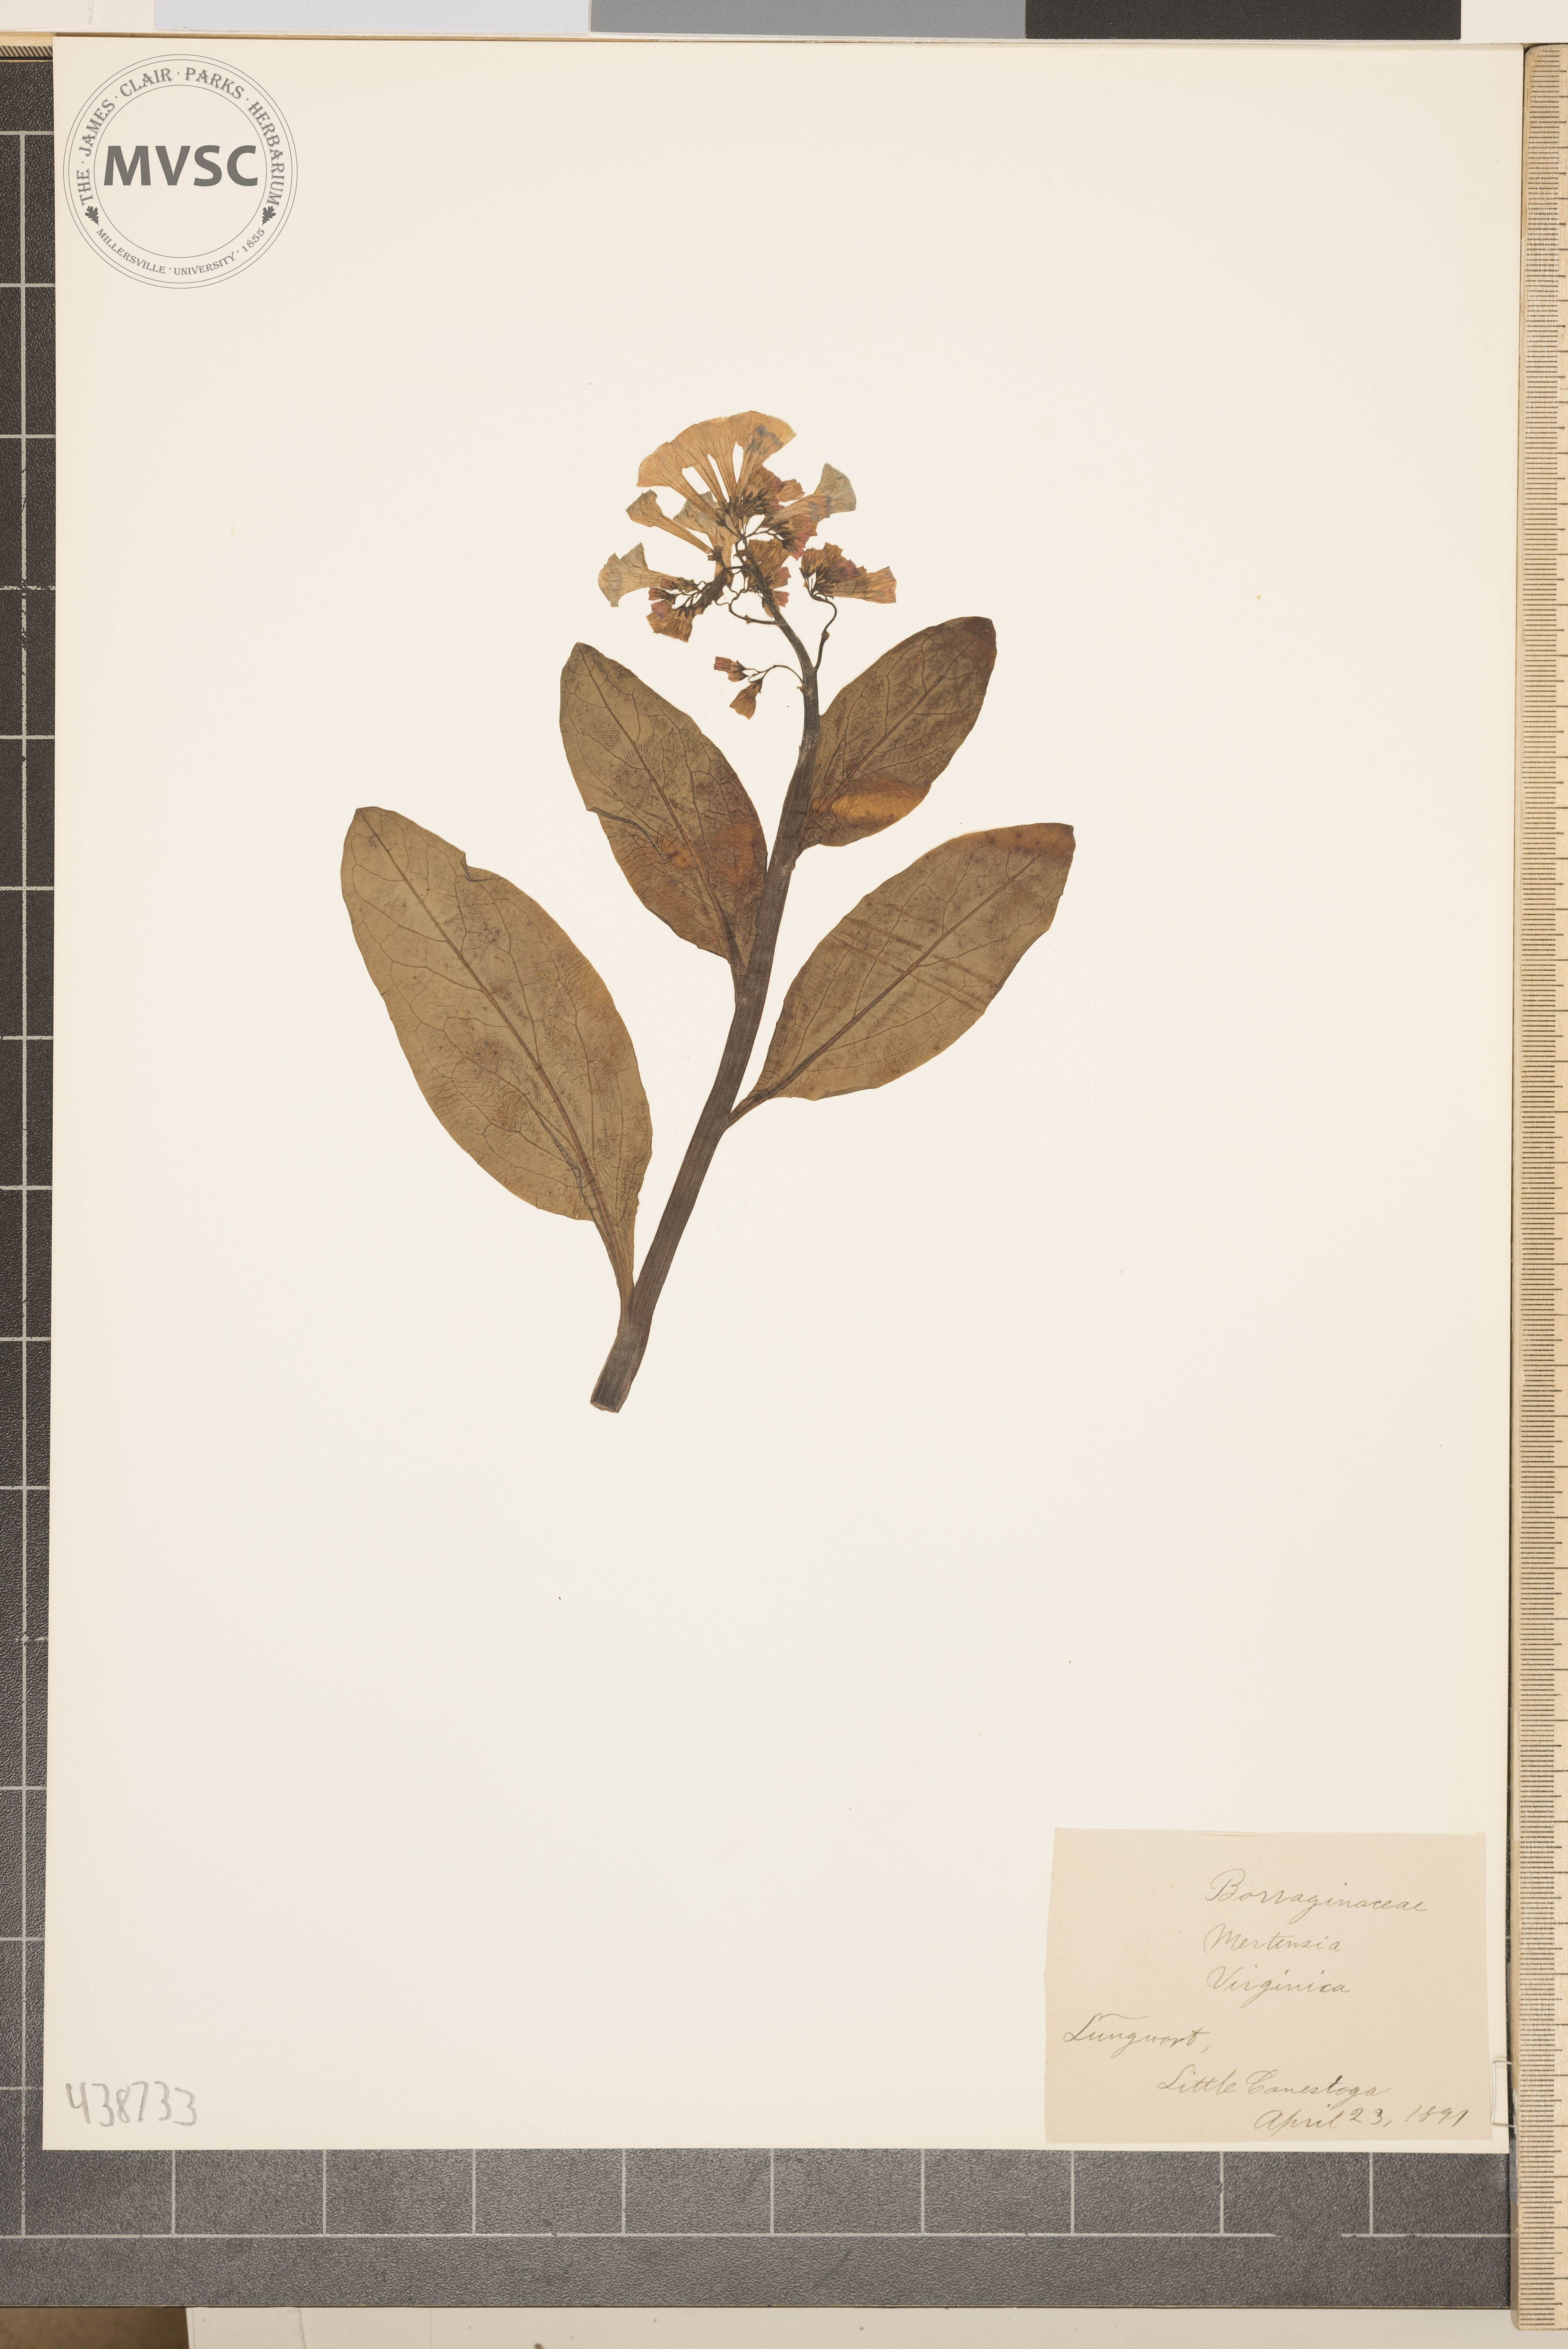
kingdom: Plantae
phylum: Tracheophyta
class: Magnoliopsida
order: Boraginales
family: Boraginaceae
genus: Mertensia
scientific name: Mertensia virginica
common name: Lungwort
